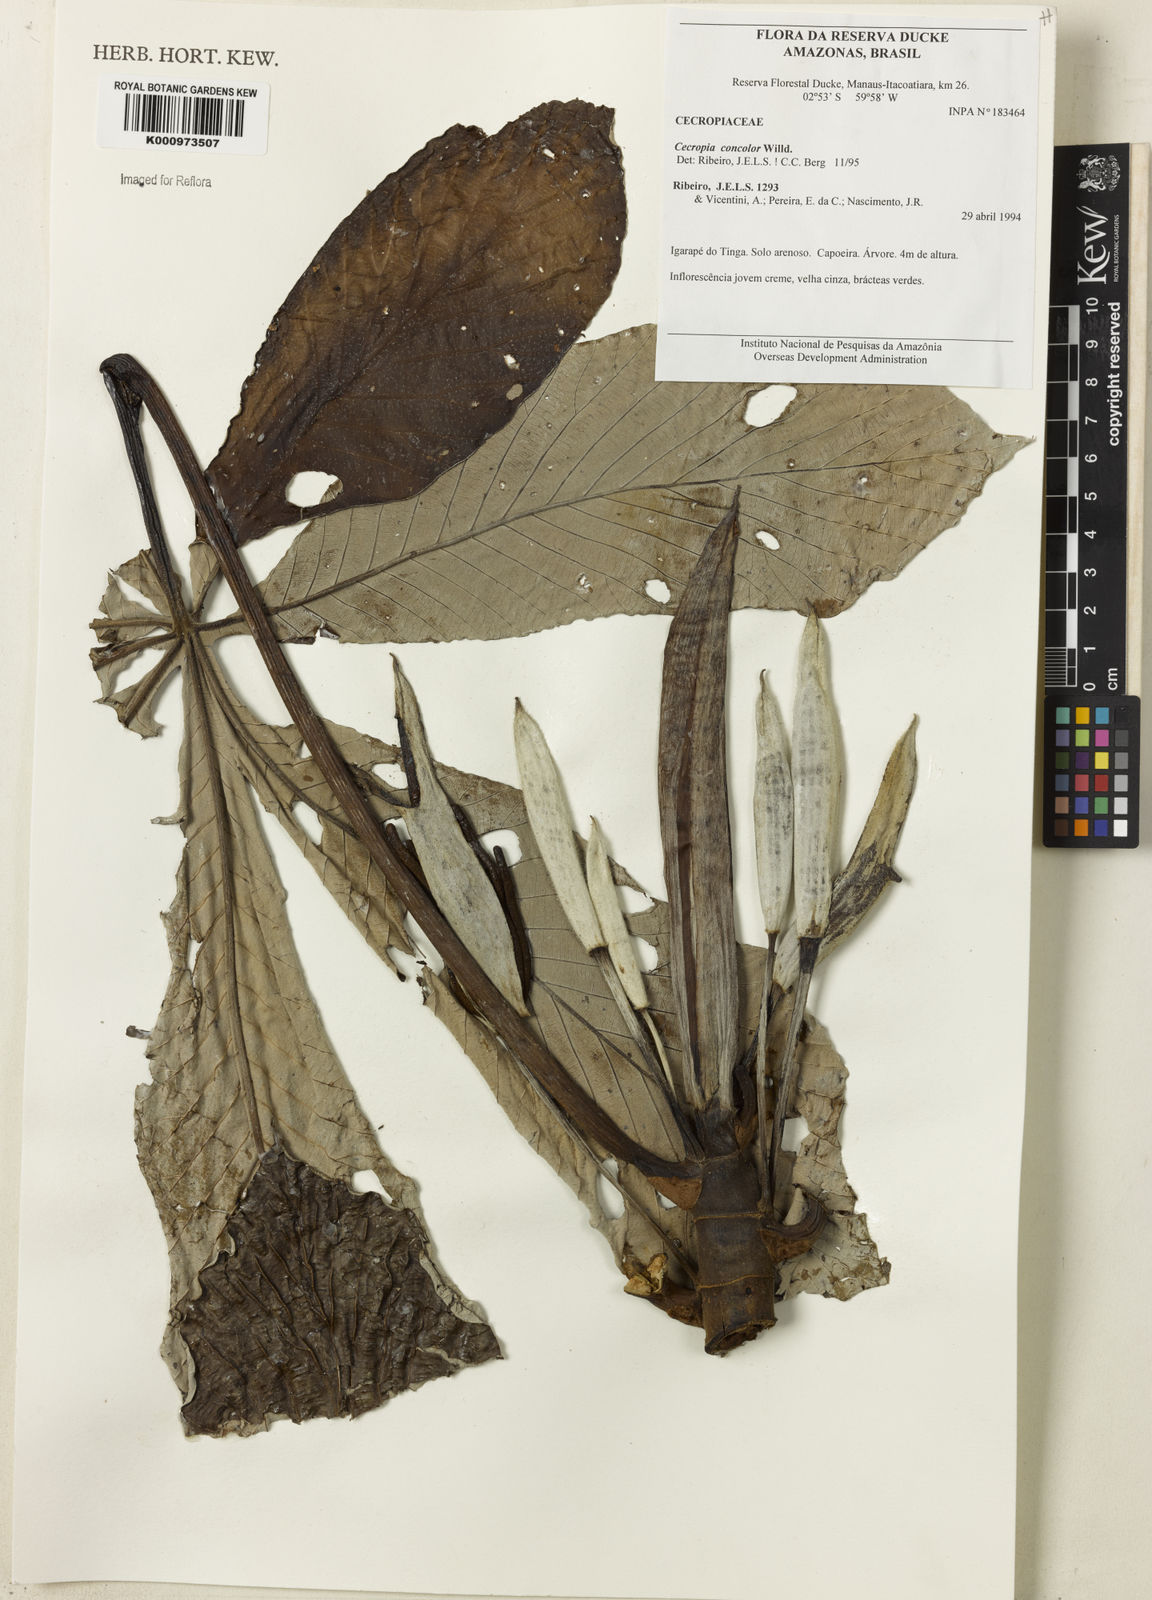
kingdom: Plantae
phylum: Tracheophyta
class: Magnoliopsida
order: Rosales
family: Urticaceae
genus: Cecropia
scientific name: Cecropia concolor
